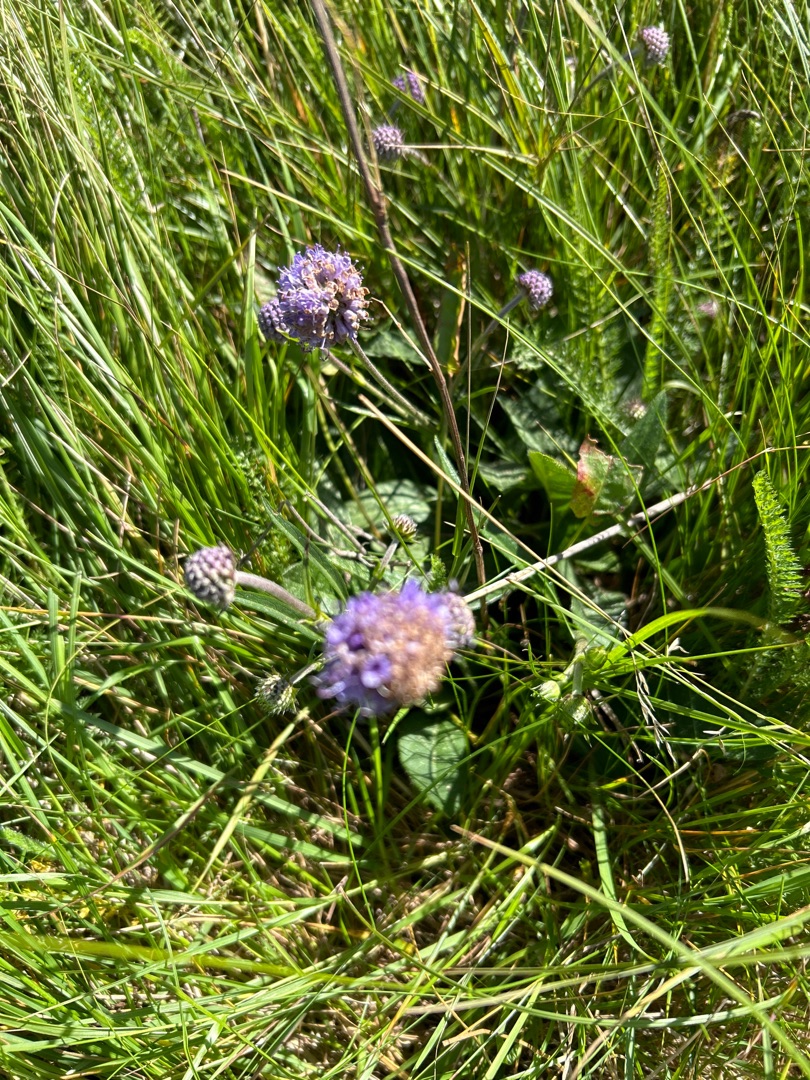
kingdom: Plantae
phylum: Tracheophyta
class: Magnoliopsida
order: Dipsacales
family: Caprifoliaceae
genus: Succisa
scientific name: Succisa pratensis
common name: Djævelsbid
